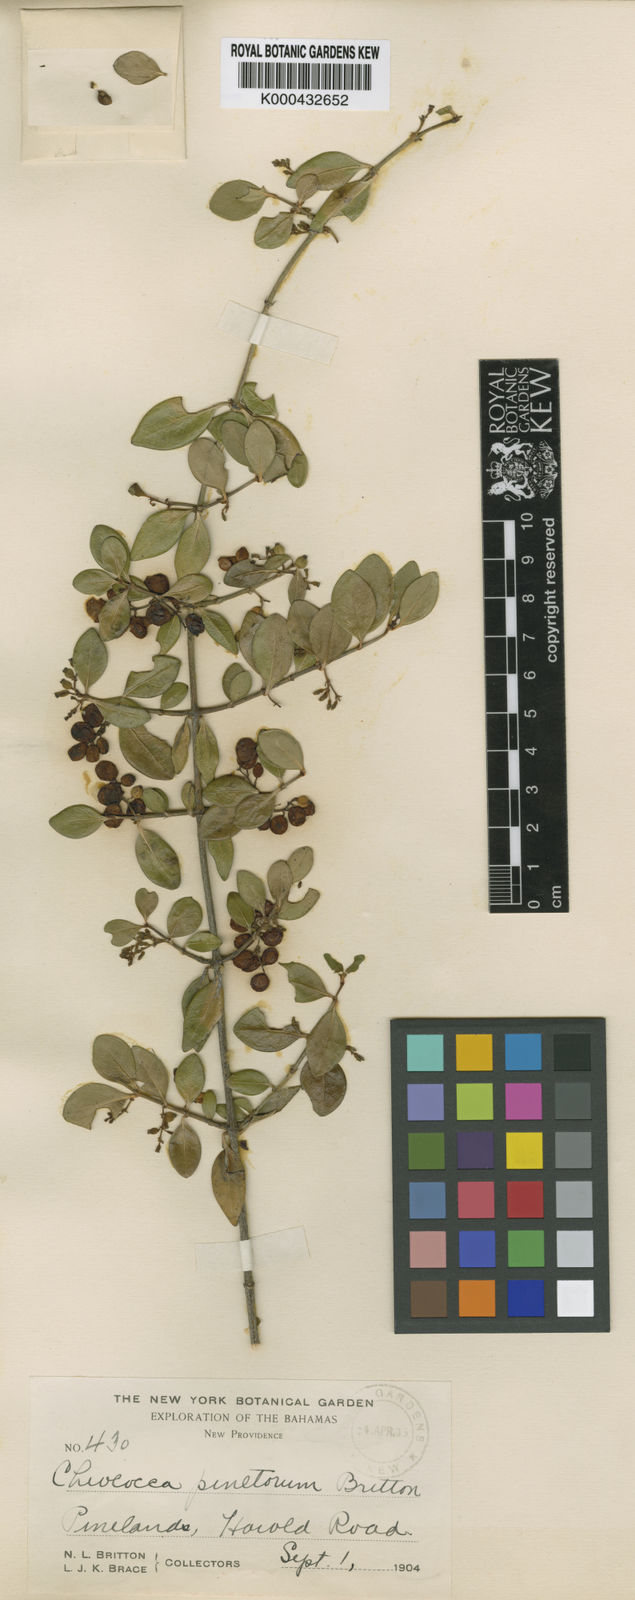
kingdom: Plantae
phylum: Tracheophyta
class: Magnoliopsida
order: Gentianales
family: Rubiaceae
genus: Chiococca
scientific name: Chiococca
